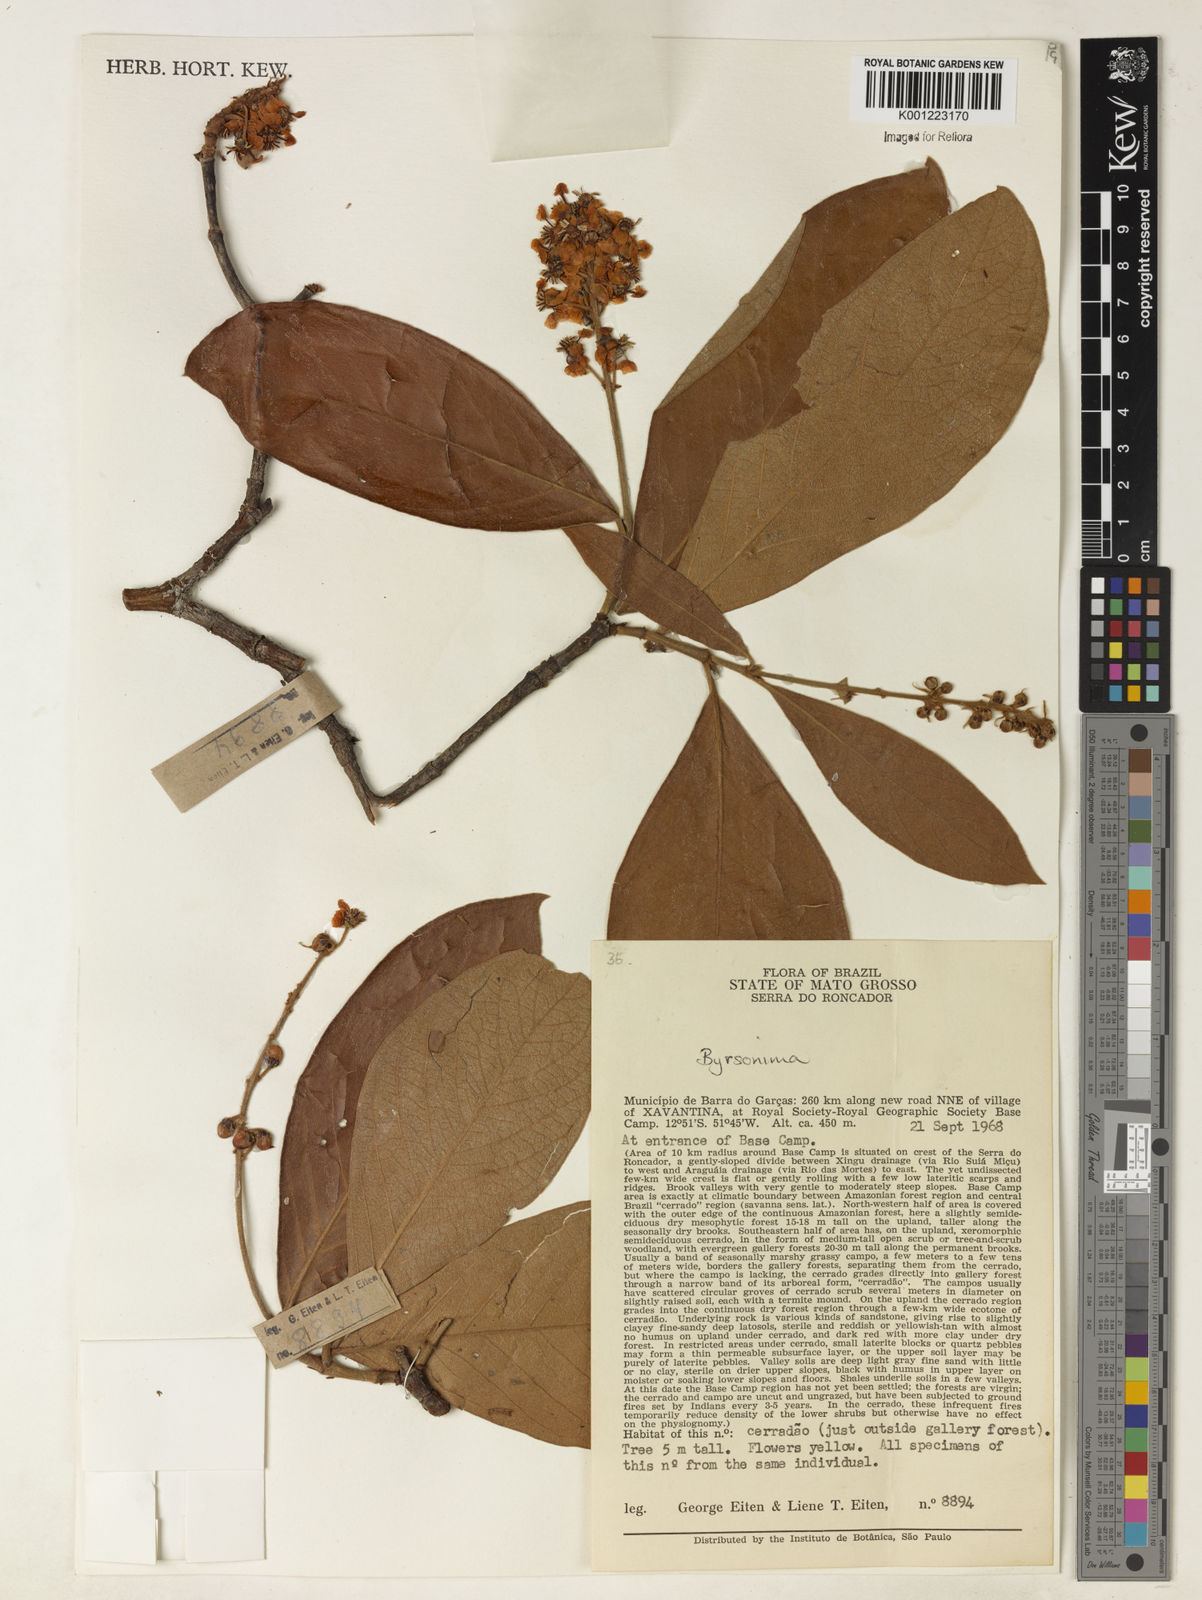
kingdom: Plantae
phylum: Tracheophyta
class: Magnoliopsida
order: Malpighiales
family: Malpighiaceae
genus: Byrsonima
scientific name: Byrsonima
